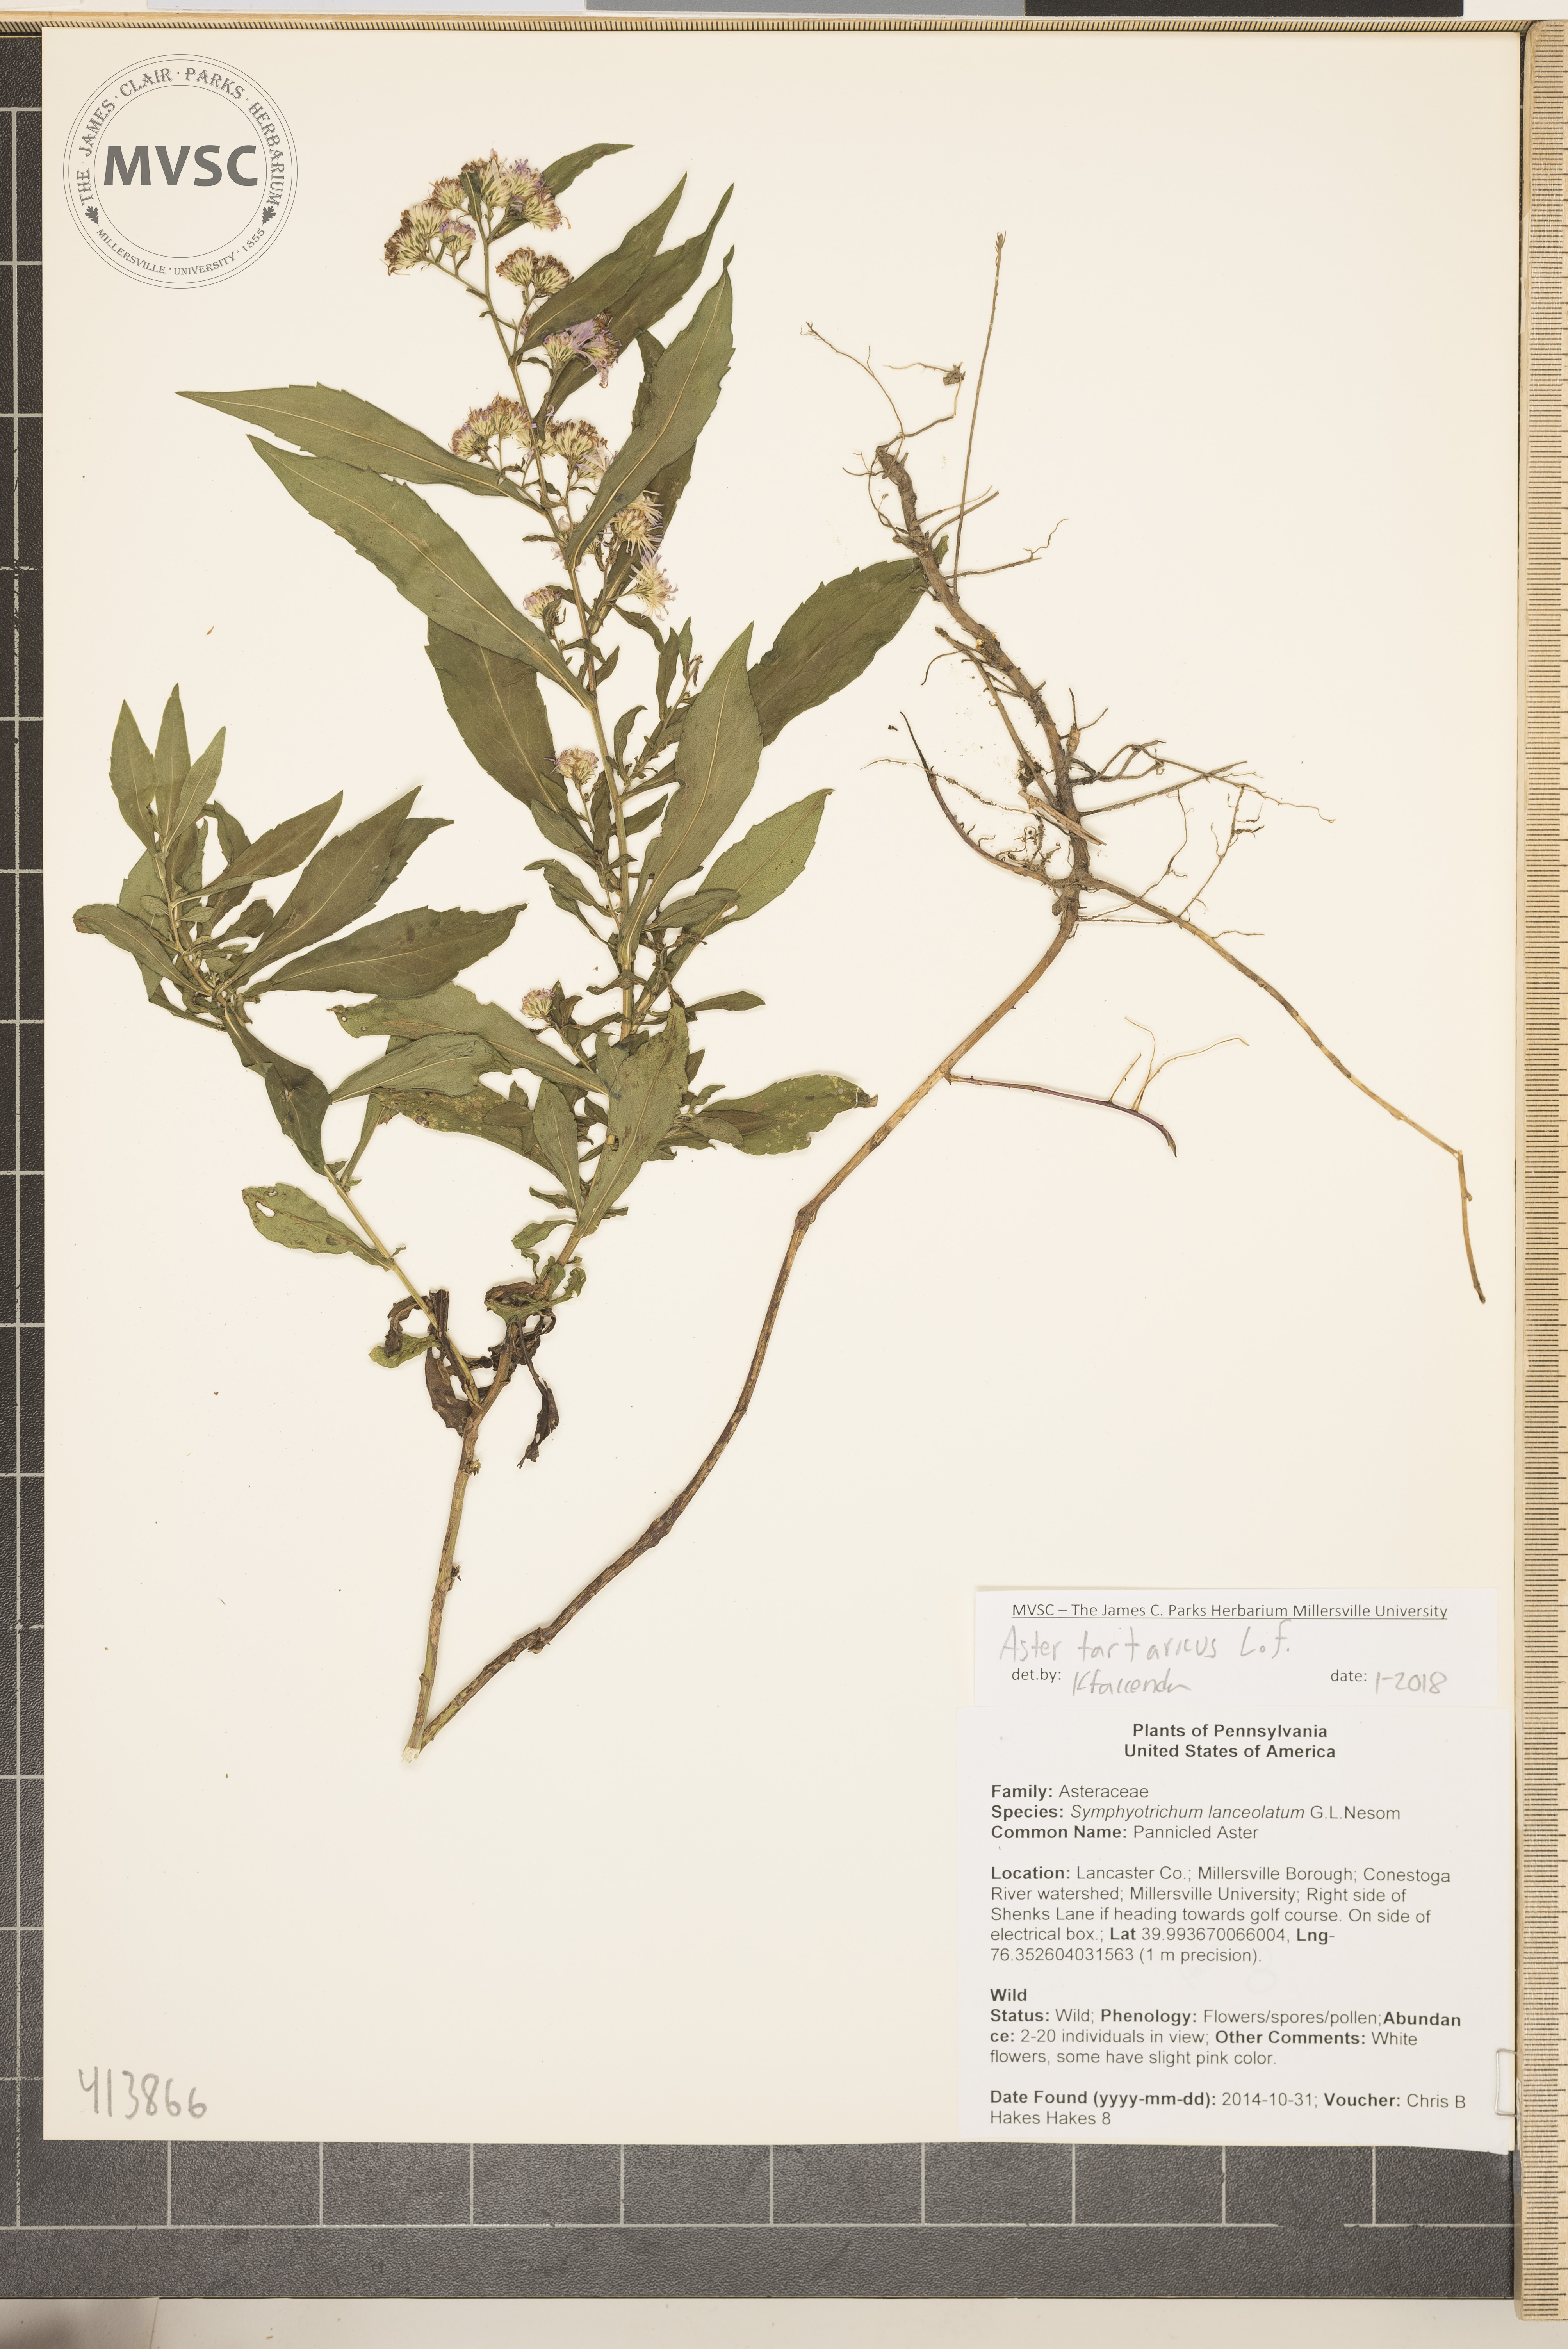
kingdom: Plantae
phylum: Tracheophyta
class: Magnoliopsida
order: Asterales
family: Asteraceae
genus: Symphyotrichum
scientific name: Symphyotrichum
